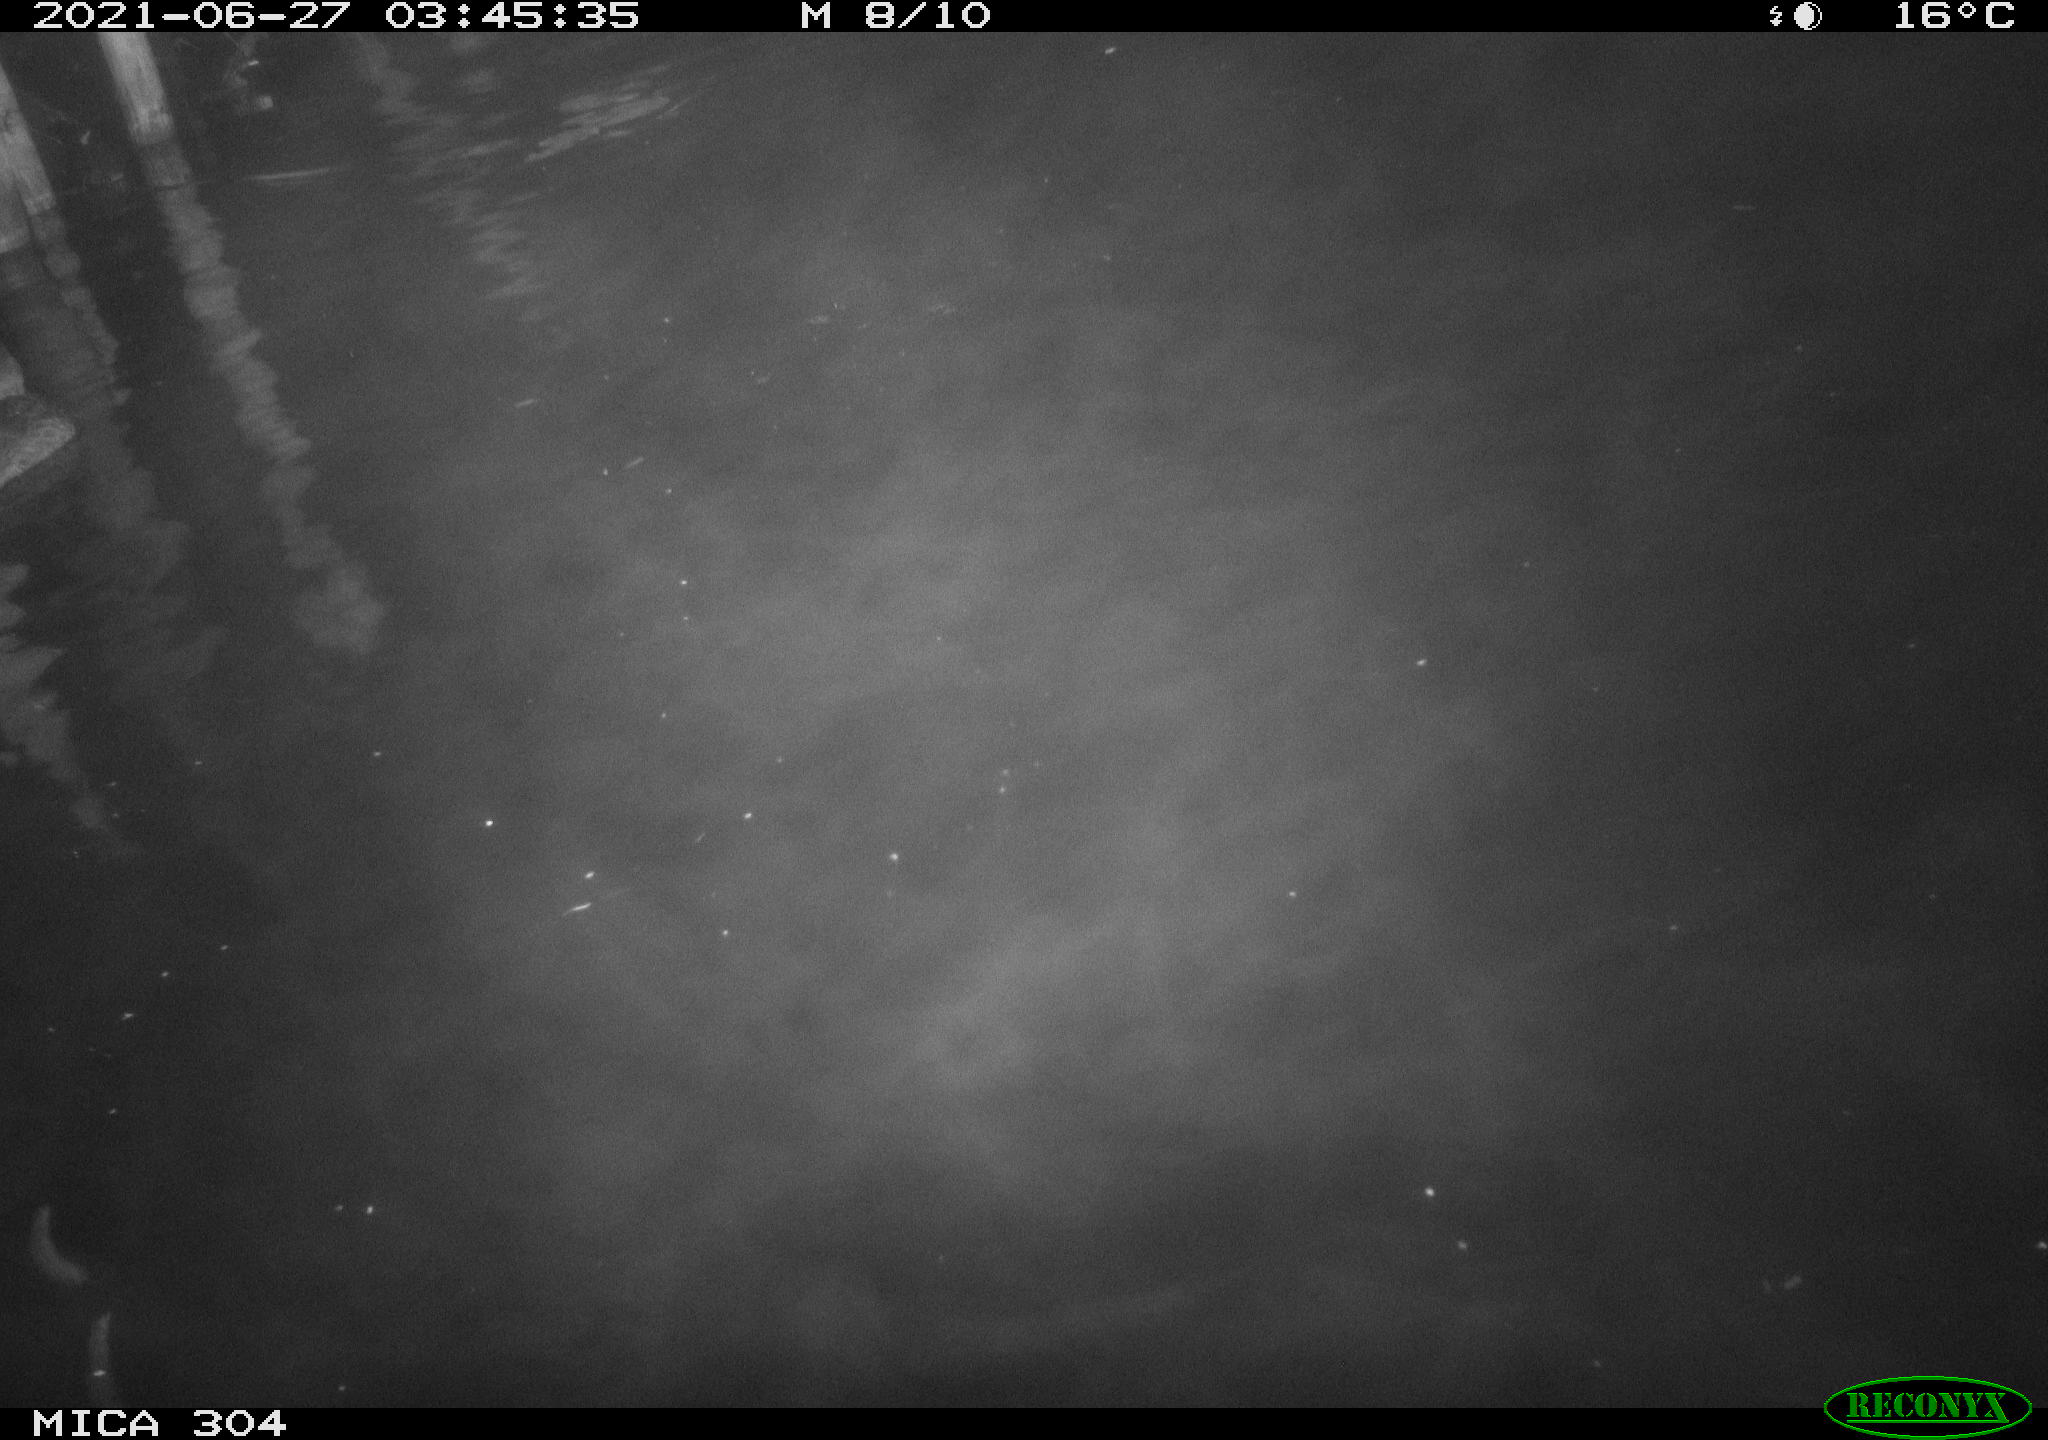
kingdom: Animalia
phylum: Chordata
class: Aves
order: Anseriformes
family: Anatidae
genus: Anas
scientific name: Anas platyrhynchos
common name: Mallard
